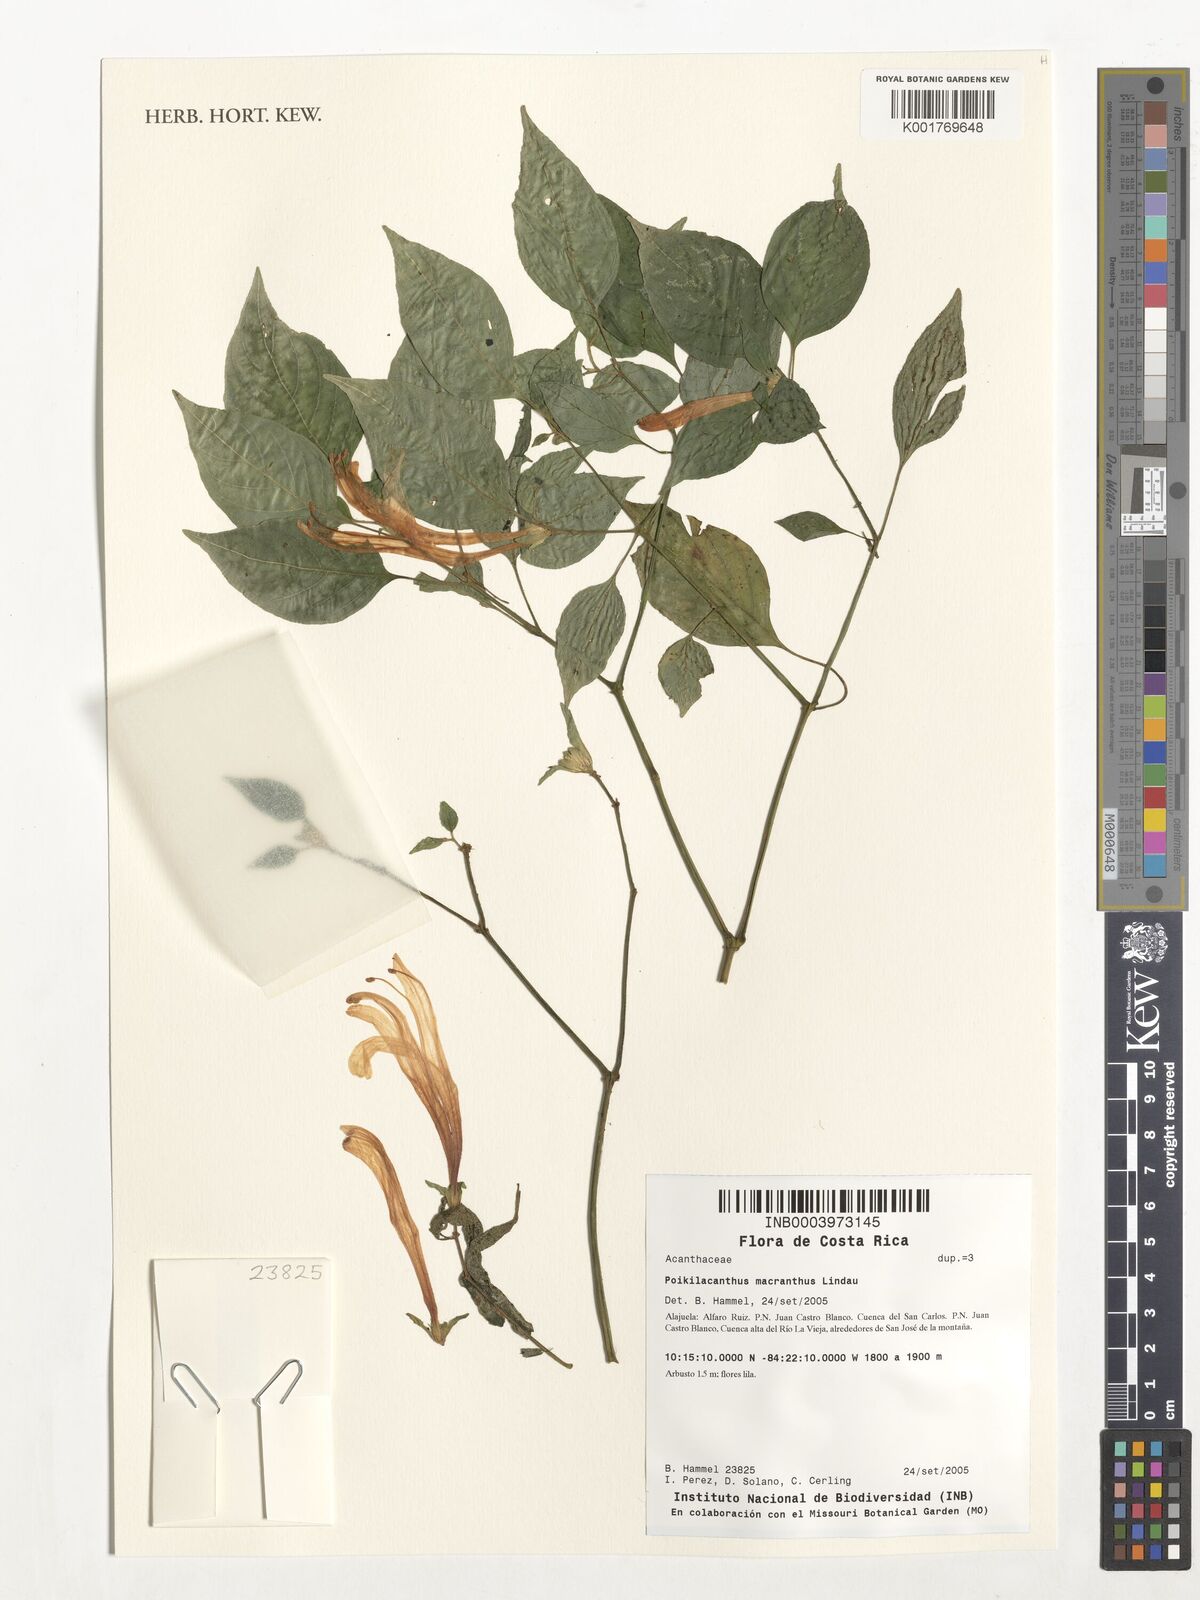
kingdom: Plantae
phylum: Tracheophyta
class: Magnoliopsida
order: Lamiales
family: Acanthaceae
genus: Poikilacanthus
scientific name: Poikilacanthus macranthus
